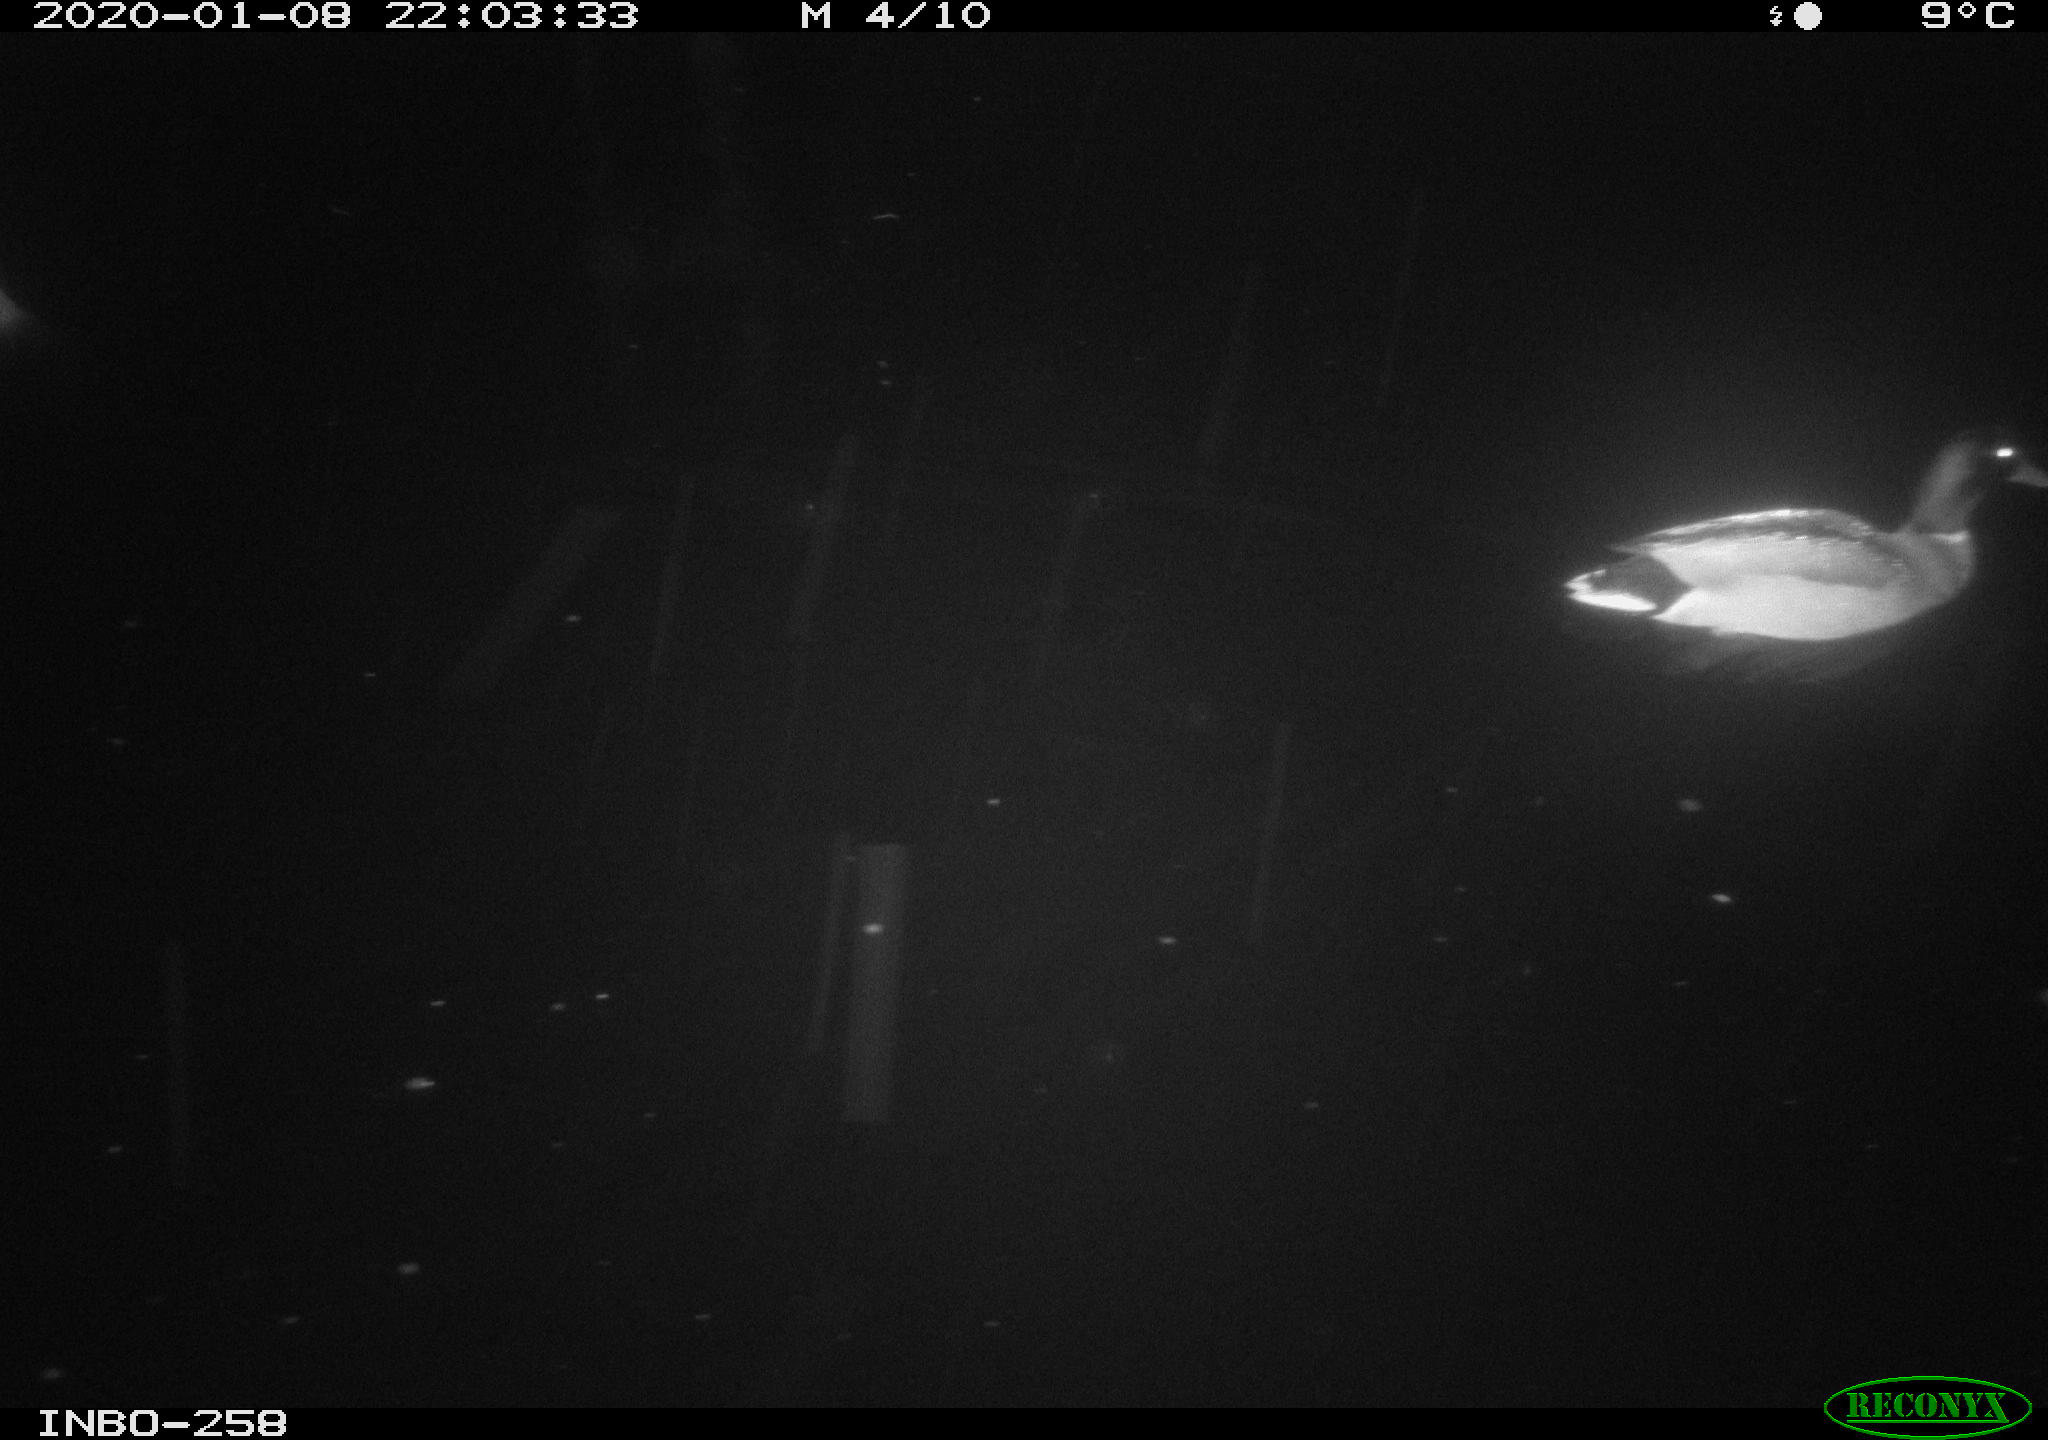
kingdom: Animalia
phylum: Chordata
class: Aves
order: Anseriformes
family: Anatidae
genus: Anas
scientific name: Anas platyrhynchos
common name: Mallard
